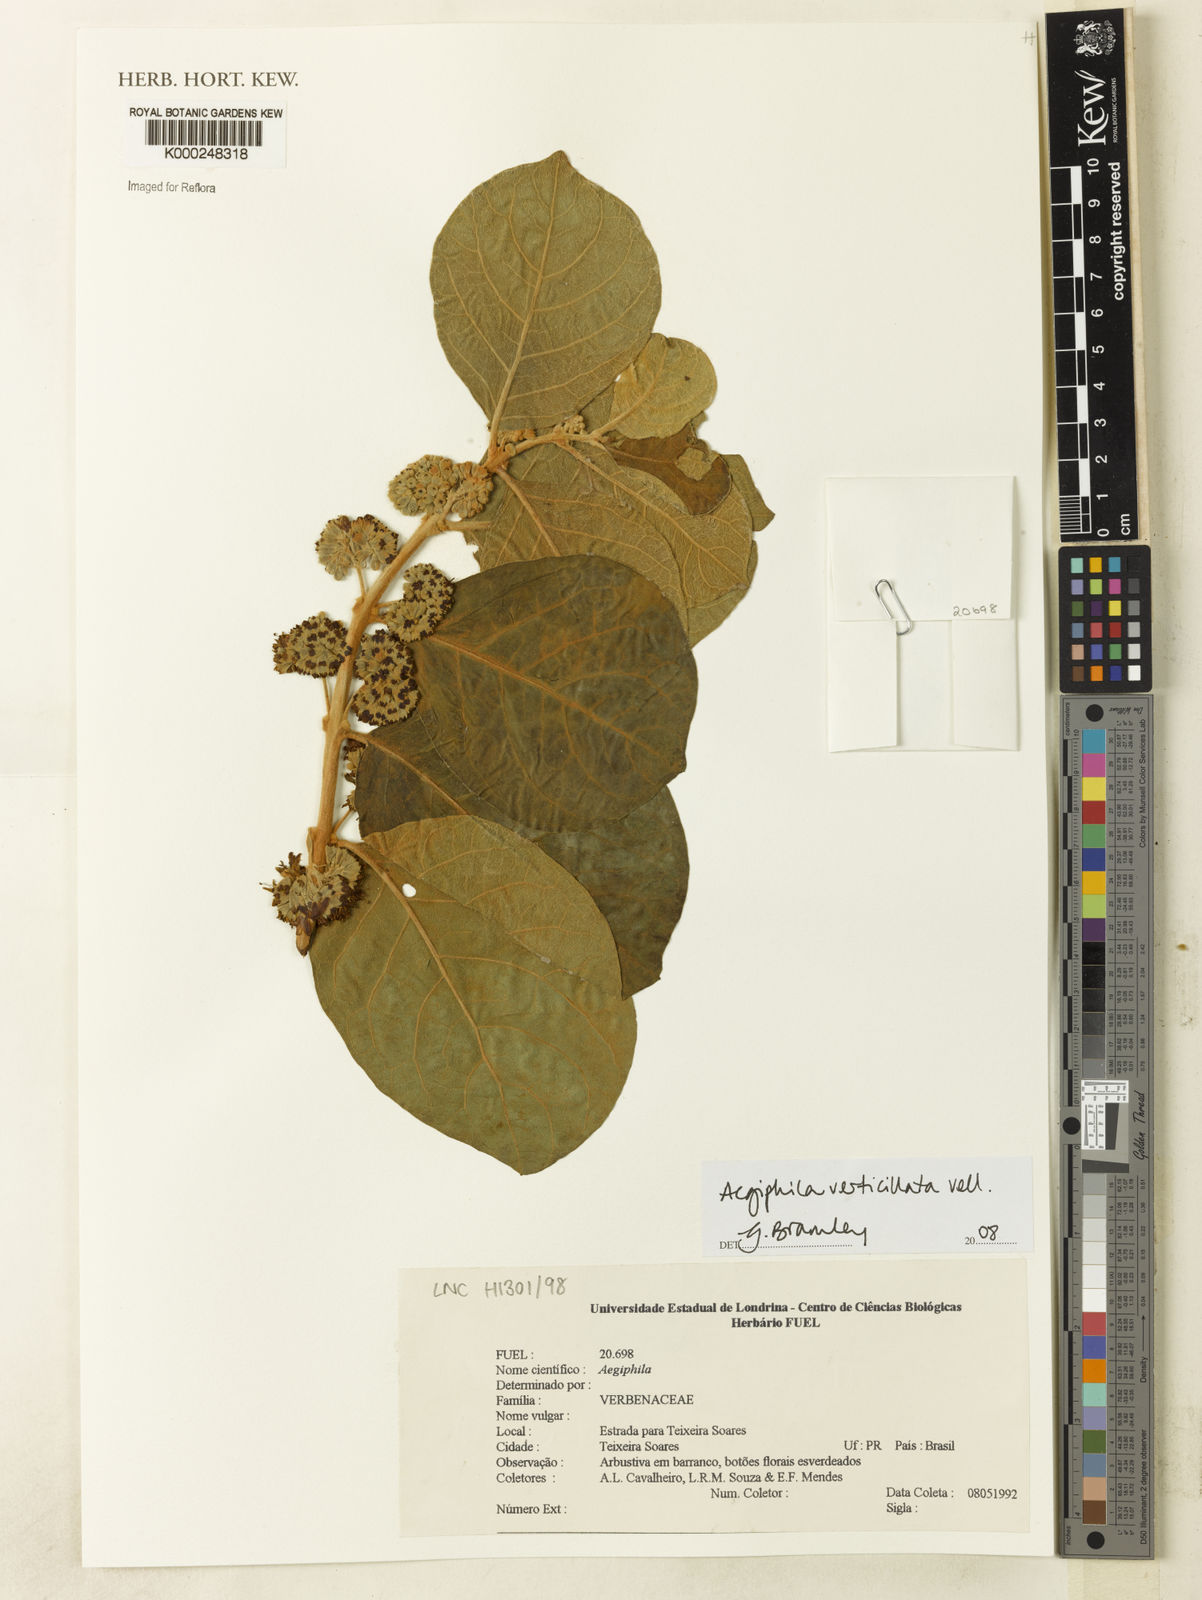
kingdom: Plantae
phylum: Tracheophyta
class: Magnoliopsida
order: Lamiales
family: Lamiaceae
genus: Aegiphila
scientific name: Aegiphila verticillata
